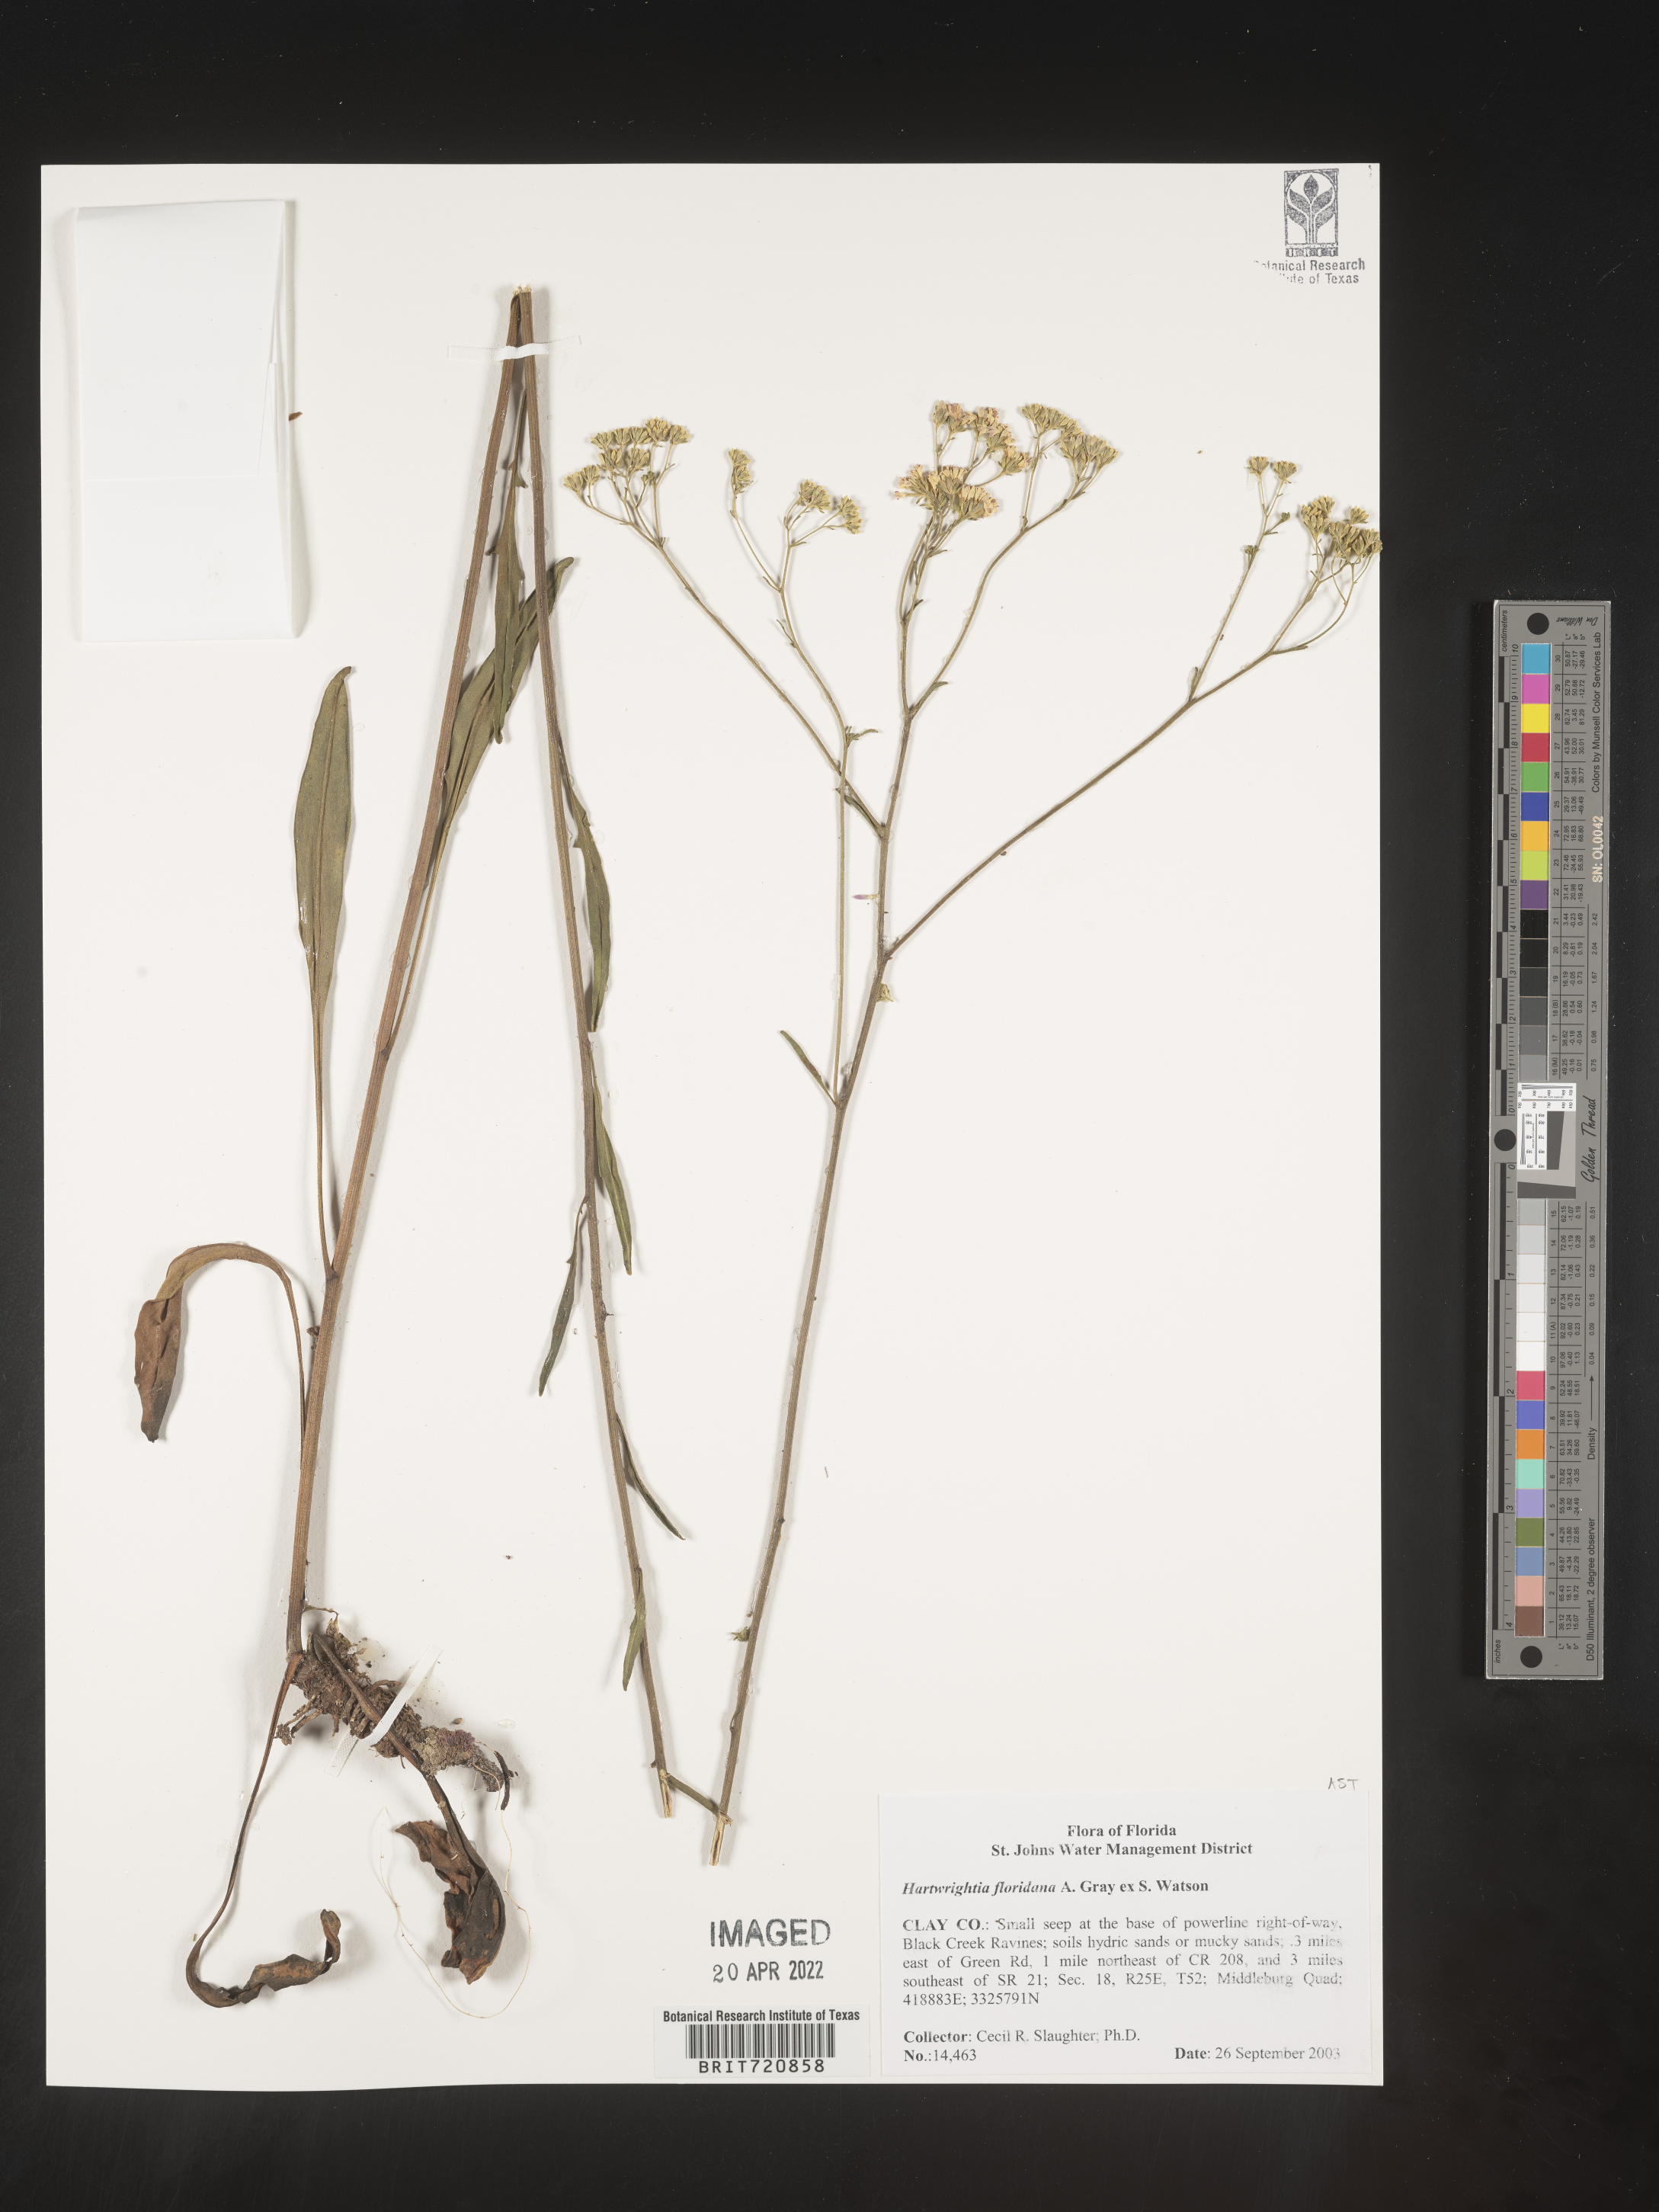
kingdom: Plantae
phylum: Tracheophyta
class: Magnoliopsida
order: Asterales
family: Asteraceae
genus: Hartwrightia
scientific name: Hartwrightia
